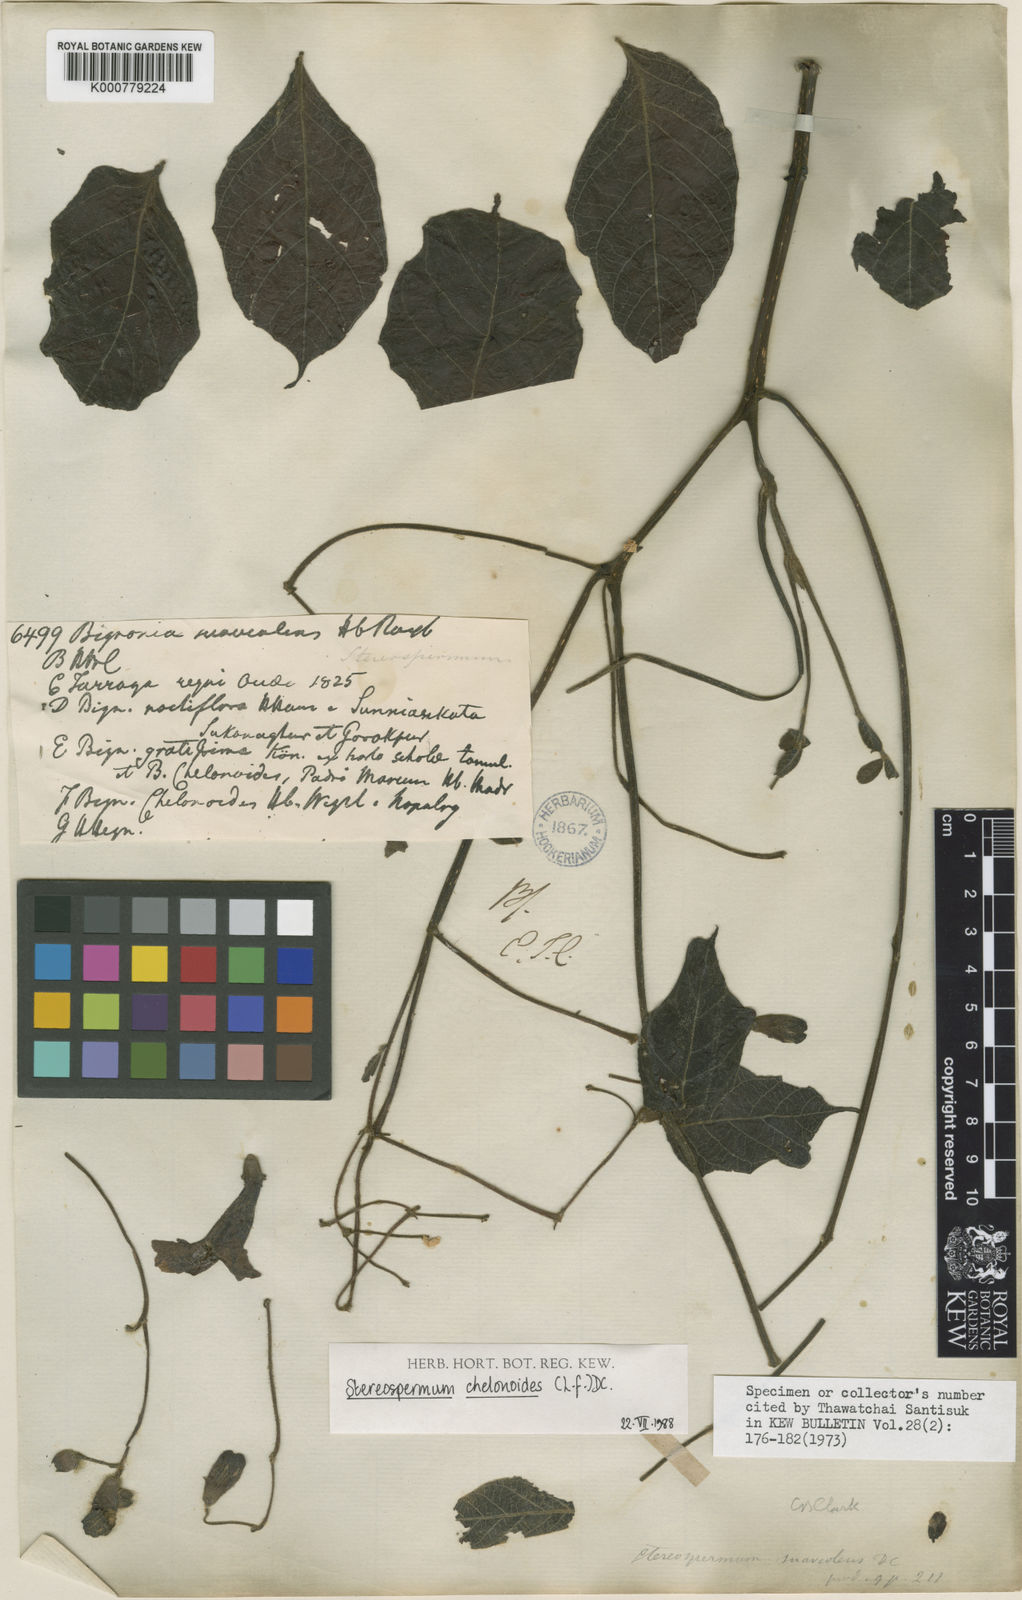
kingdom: Plantae
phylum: Tracheophyta
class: Magnoliopsida
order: Lamiales
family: Bignoniaceae
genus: Stereospermum
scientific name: Stereospermum chelonoides
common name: Fragrant padritree
